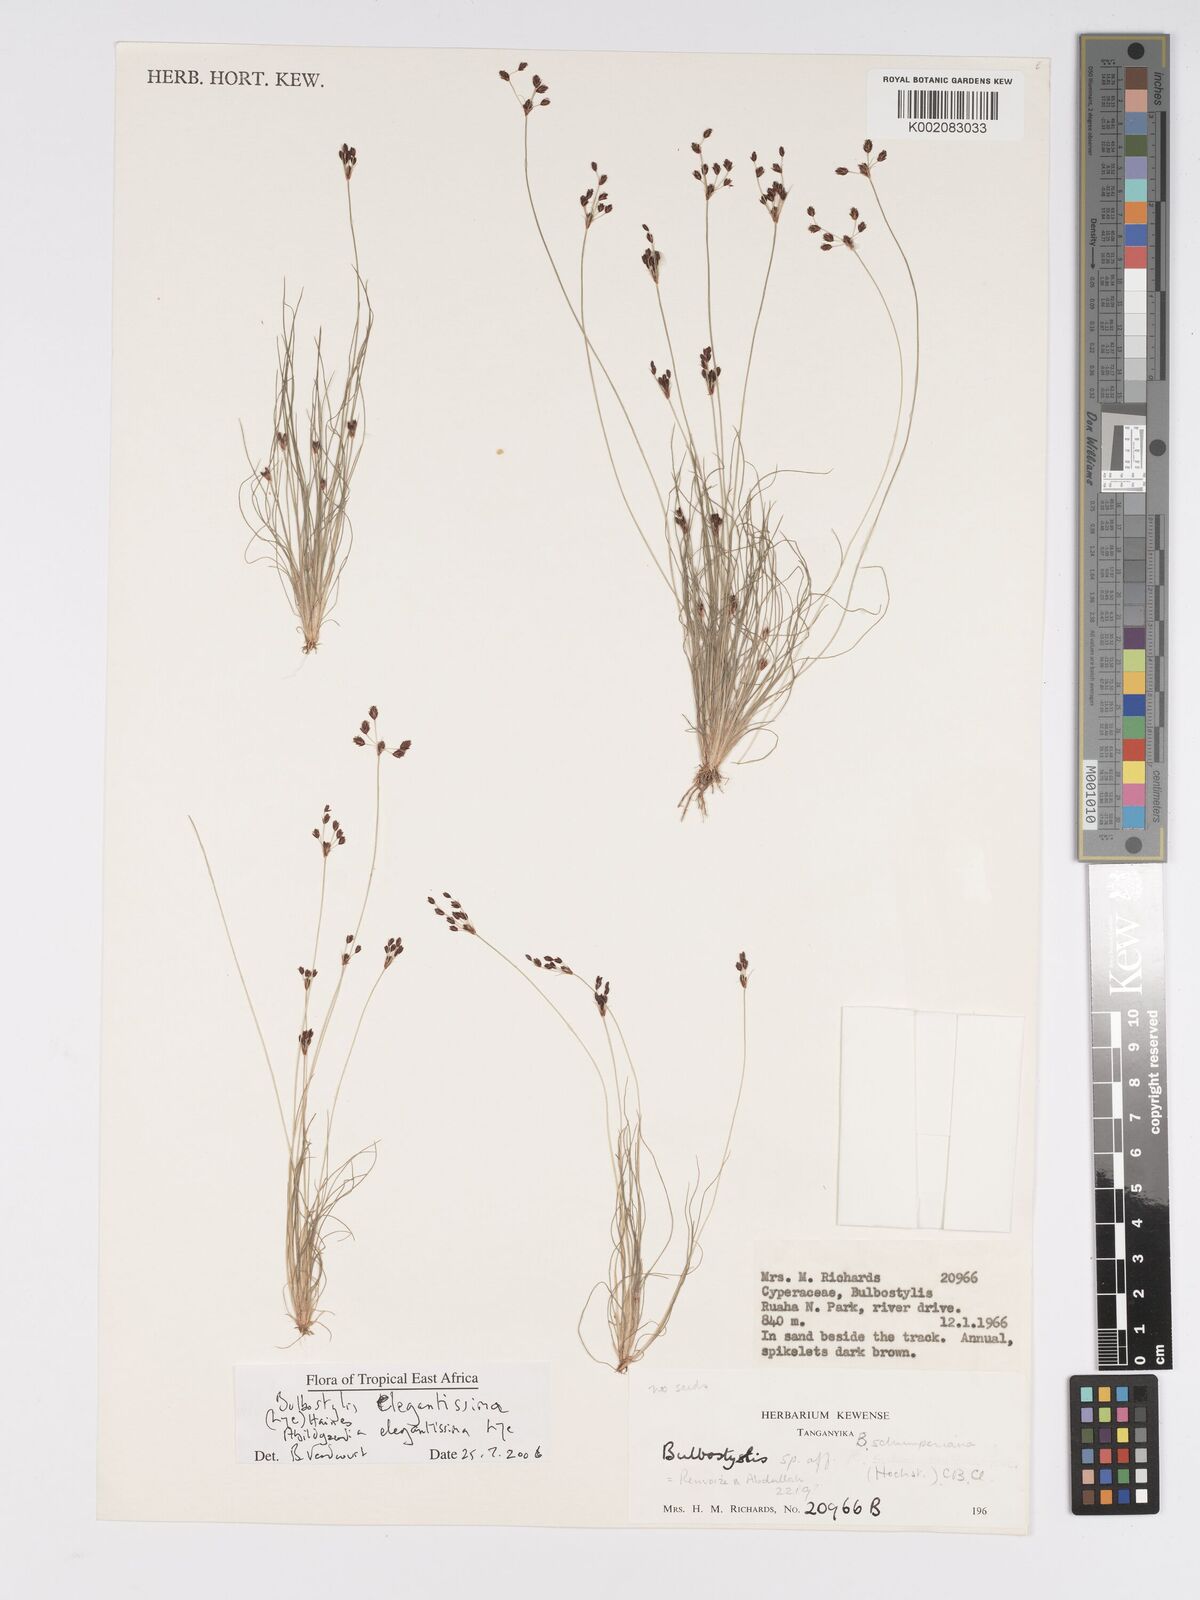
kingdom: Plantae
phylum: Tracheophyta
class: Liliopsida
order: Poales
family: Cyperaceae
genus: Bulbostylis
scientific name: Bulbostylis elegantissima
